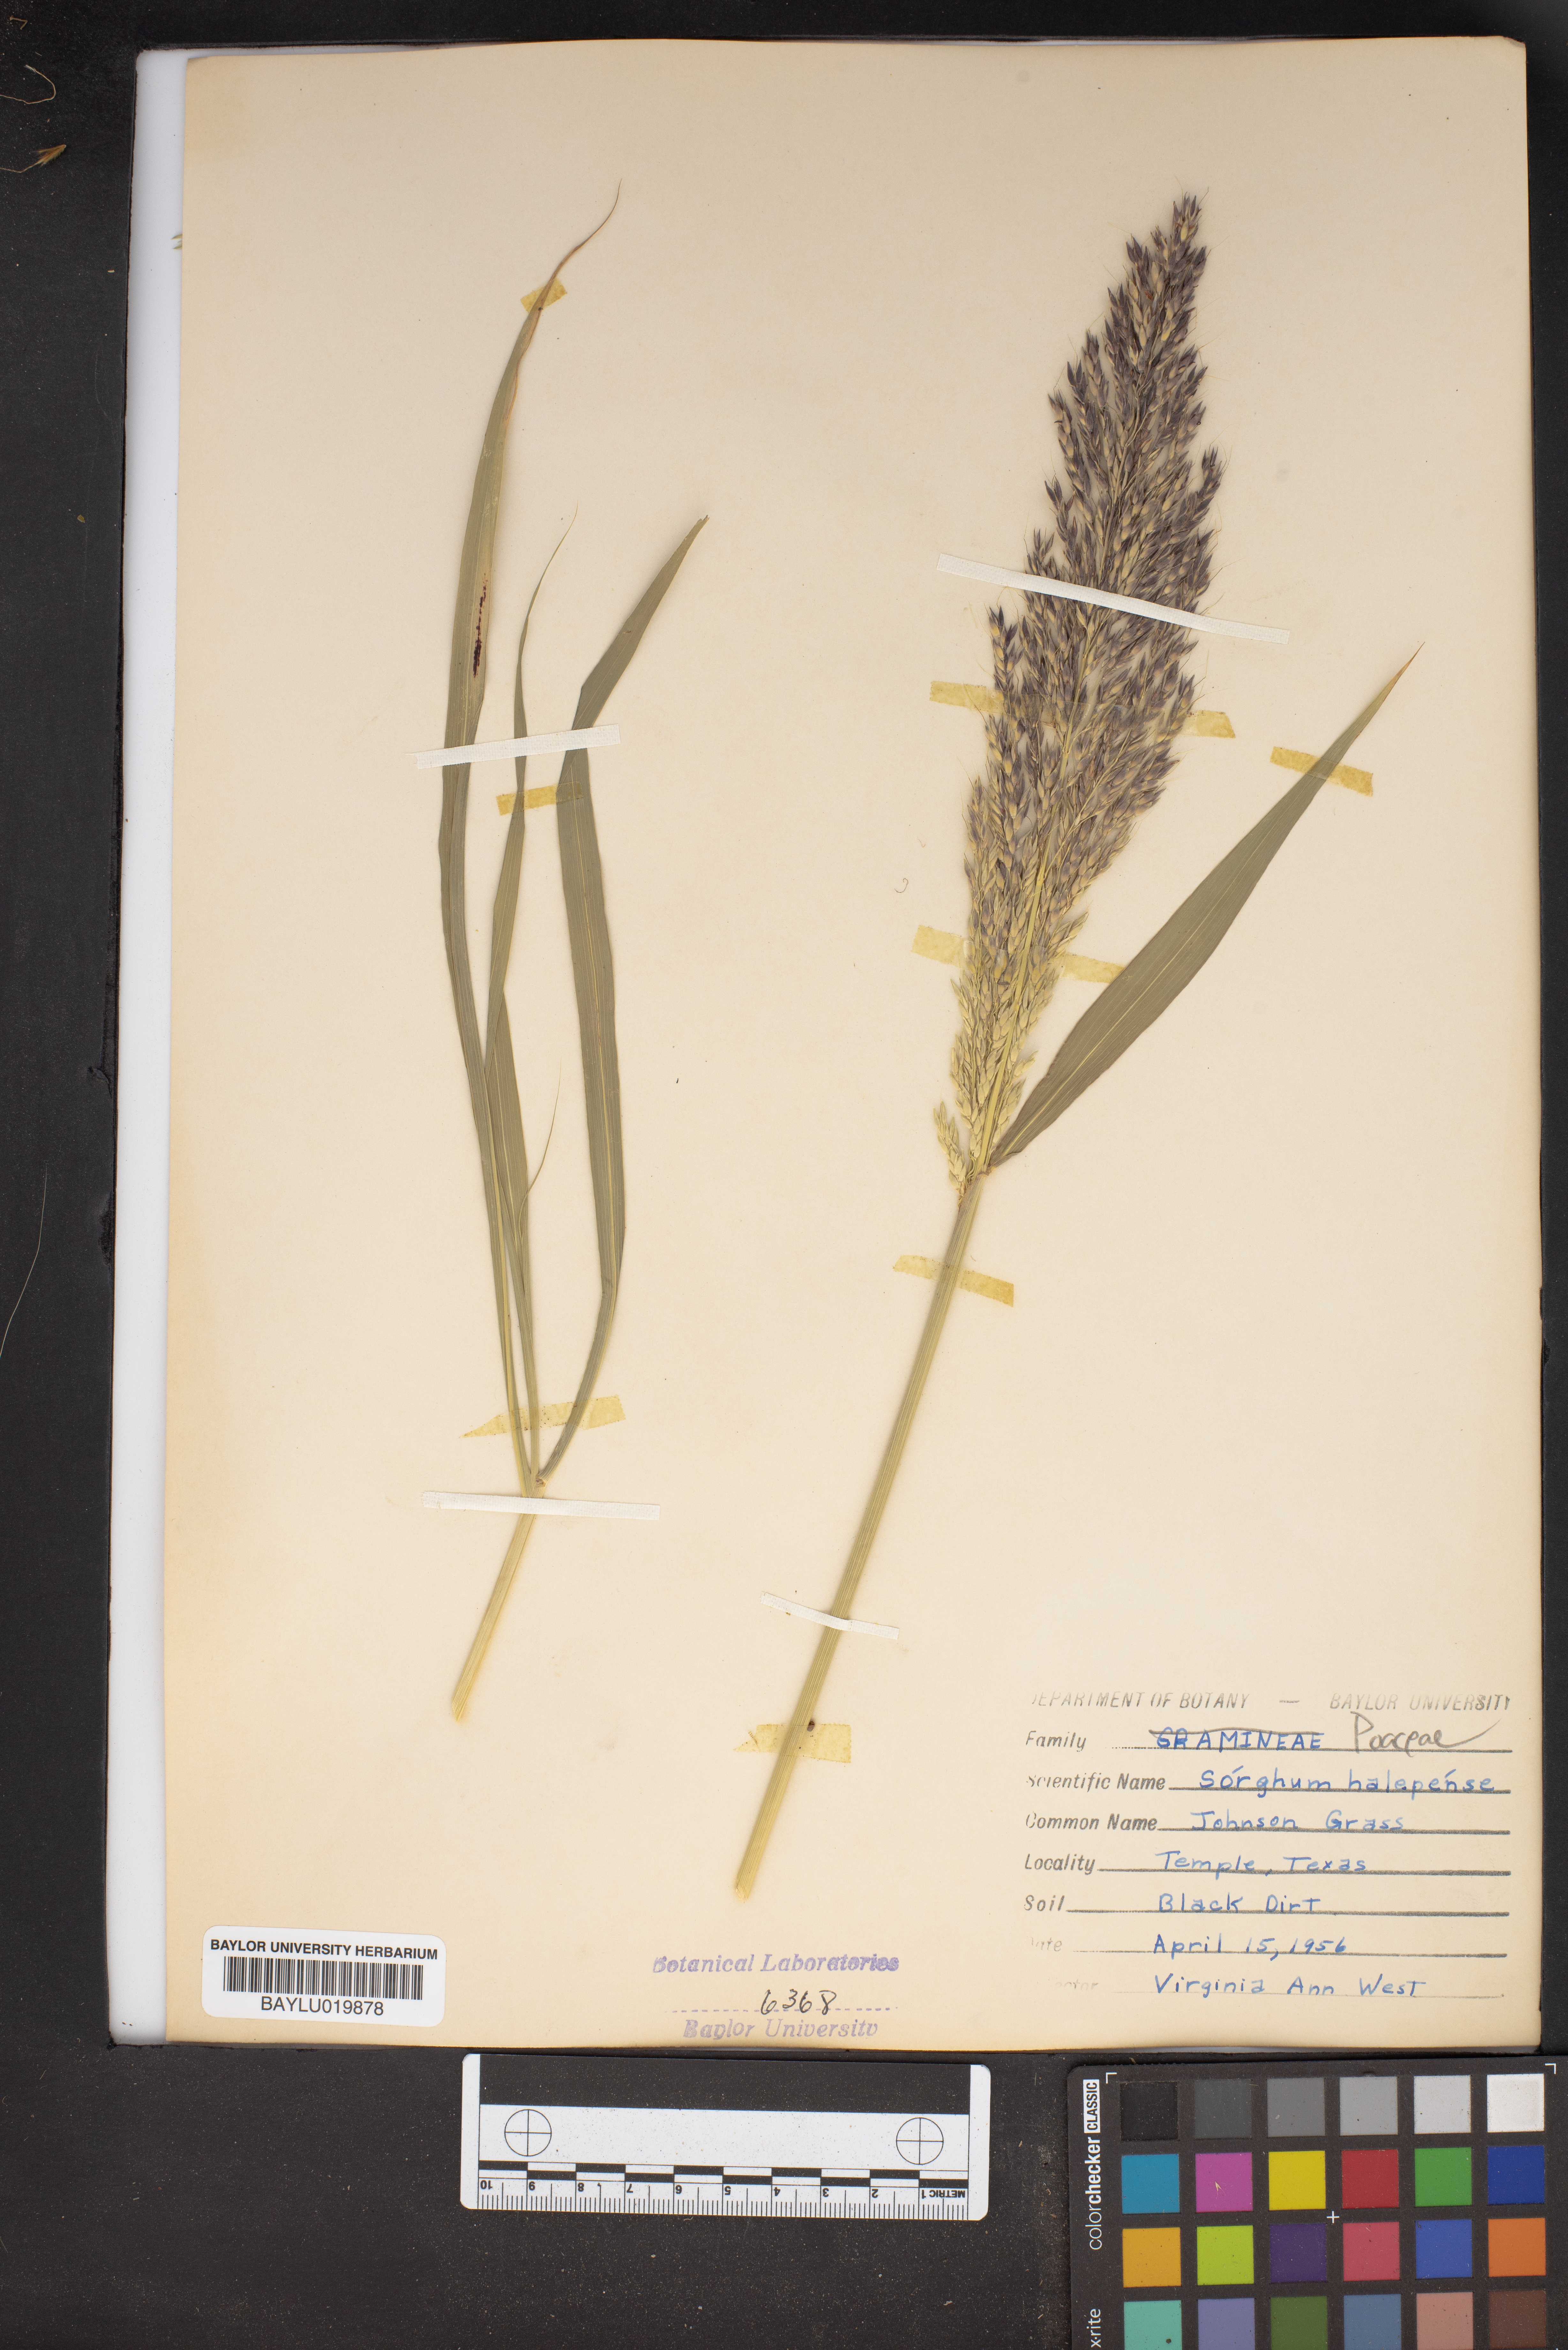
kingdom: Plantae
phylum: Tracheophyta
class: Liliopsida
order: Poales
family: Poaceae
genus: Sorghum
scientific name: Sorghum halepense
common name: Johnson-grass
